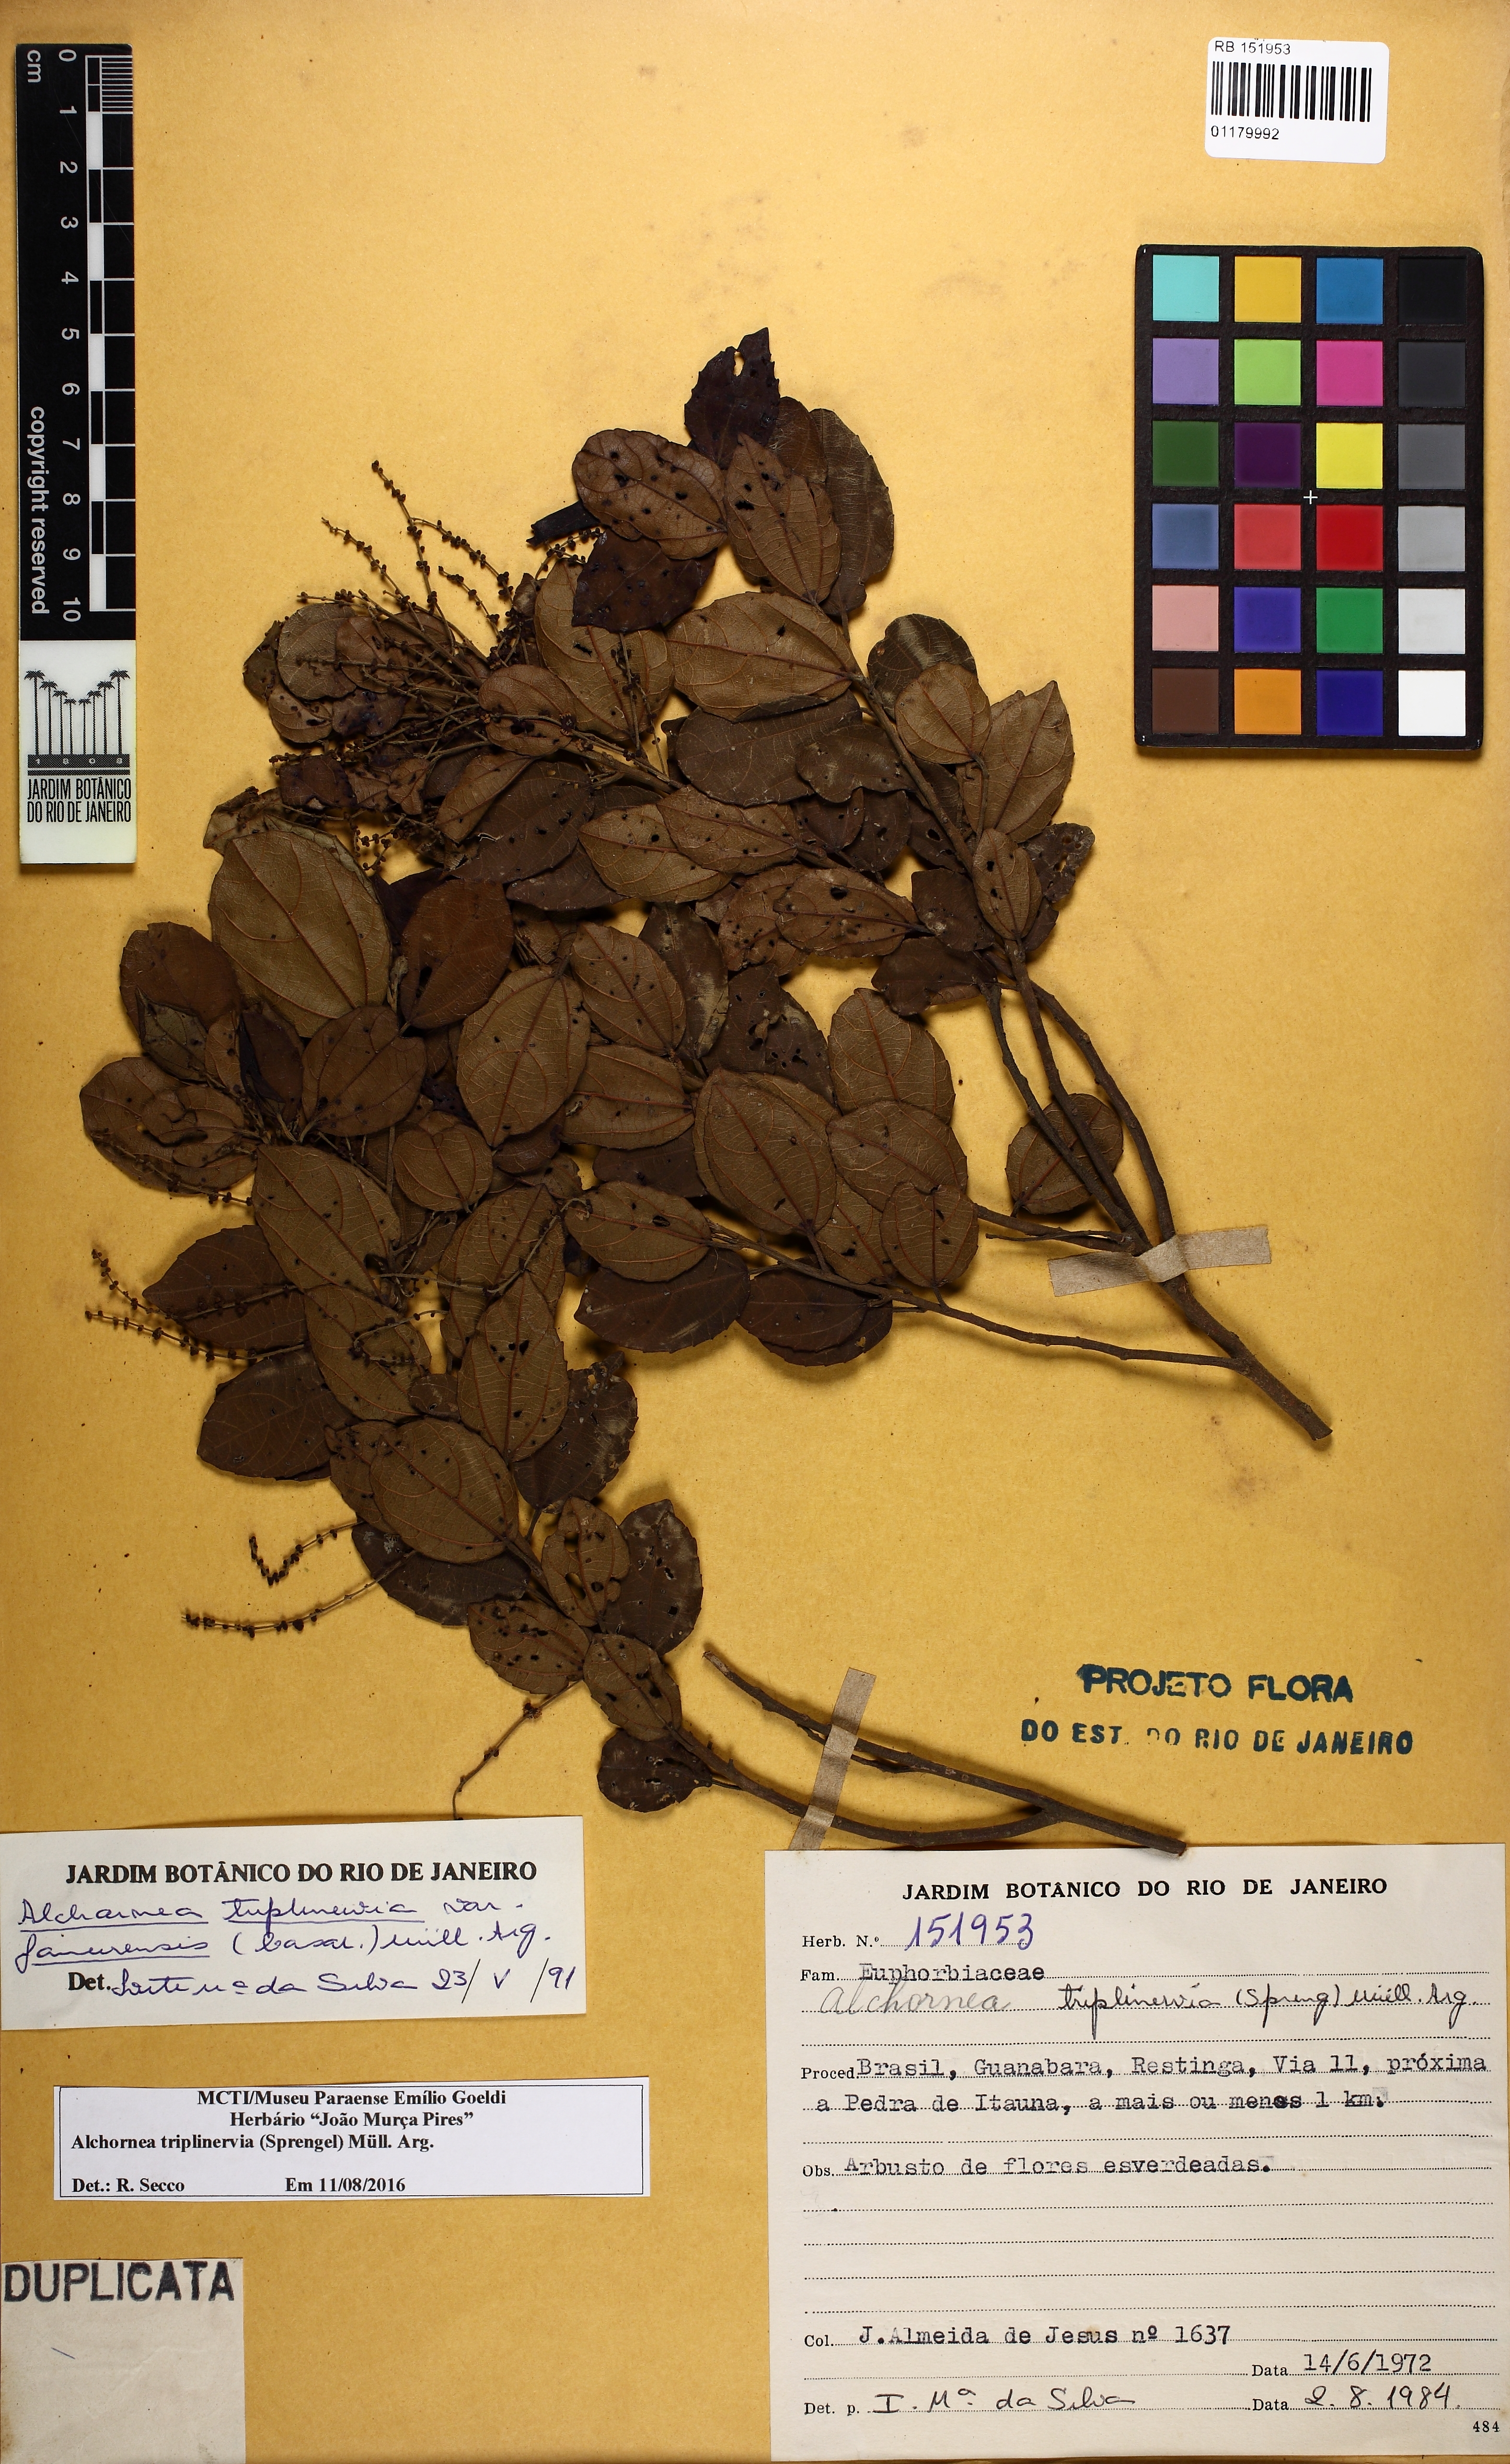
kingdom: Plantae
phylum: Tracheophyta
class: Magnoliopsida
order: Malpighiales
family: Euphorbiaceae
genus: Alchornea
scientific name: Alchornea triplinervia
